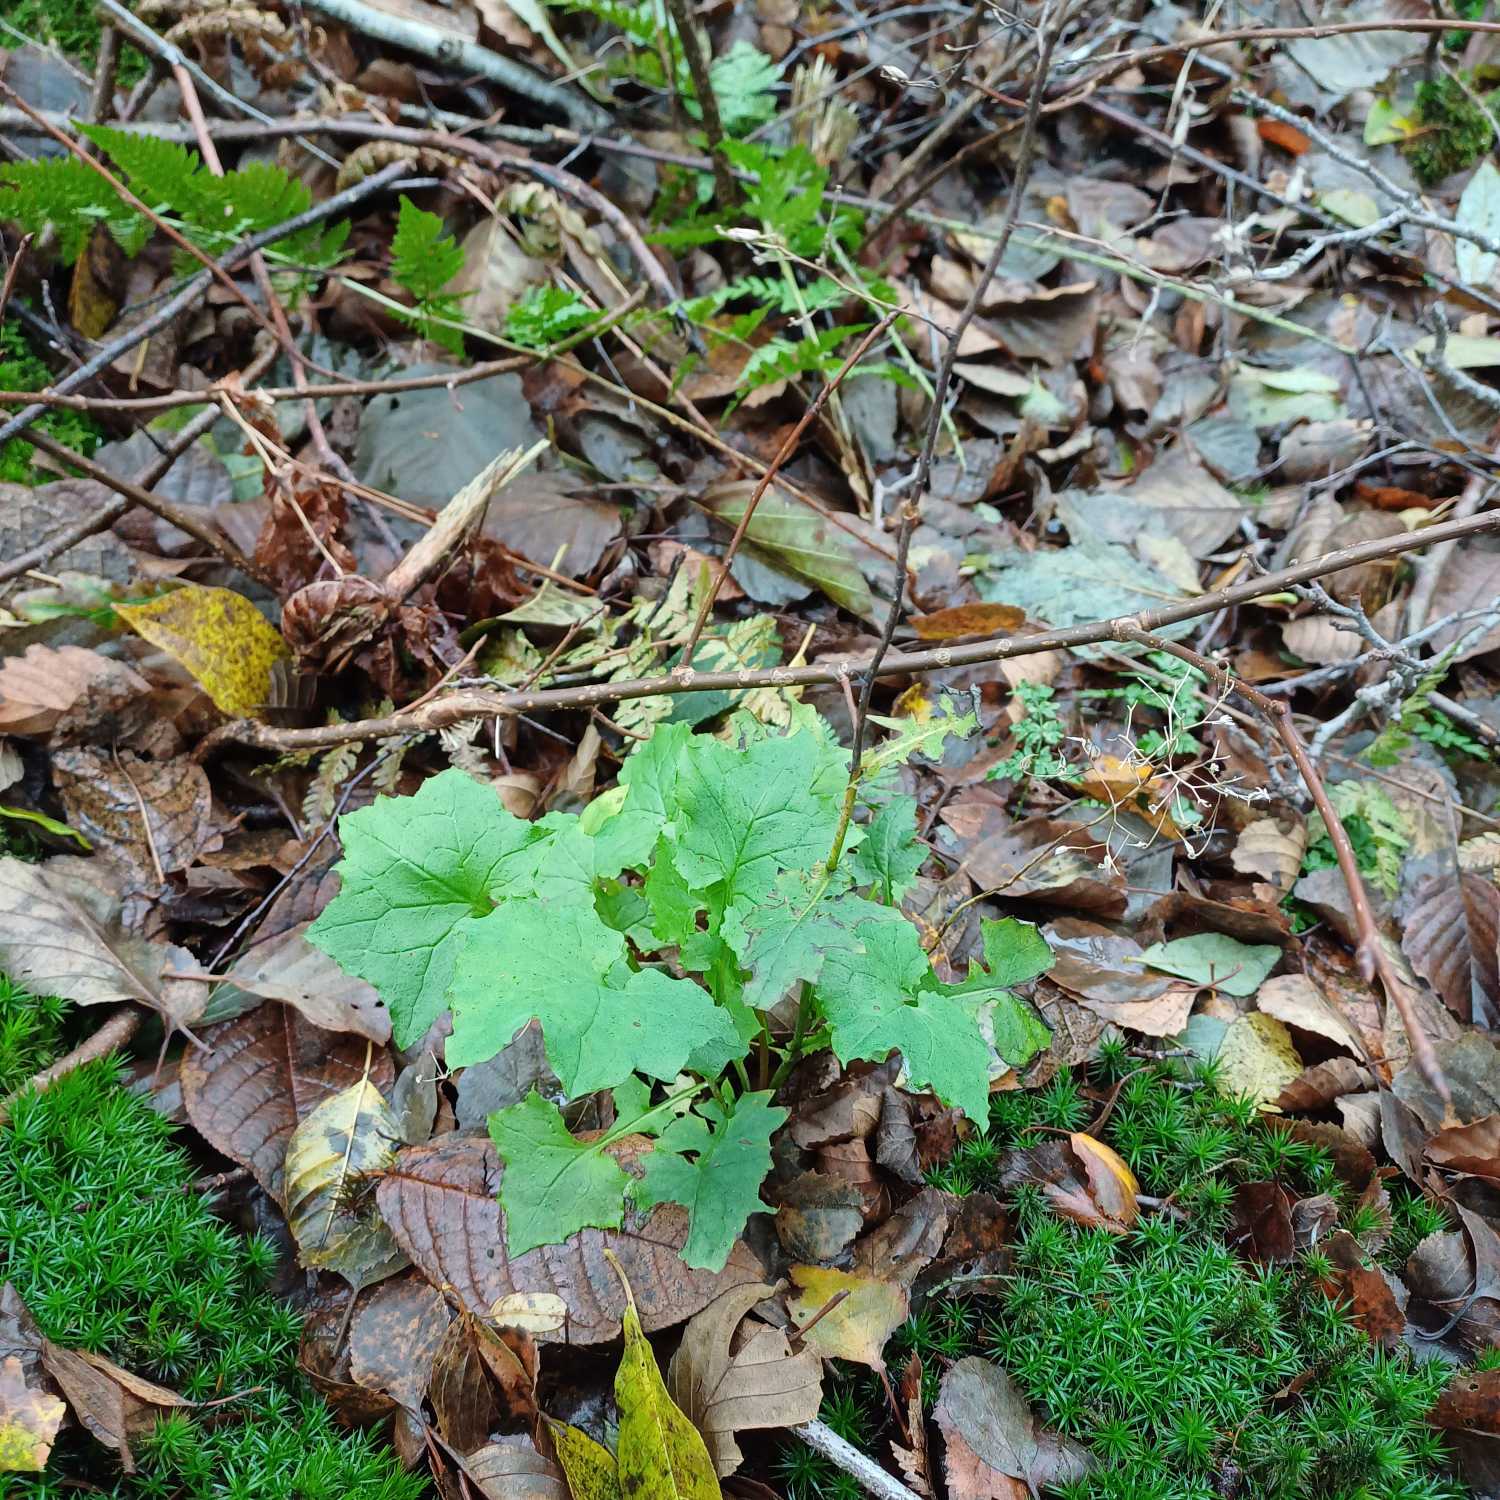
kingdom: Plantae
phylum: Tracheophyta
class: Magnoliopsida
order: Asterales
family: Asteraceae
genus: Mycelis
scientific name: Mycelis muralis
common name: Skov-salat
